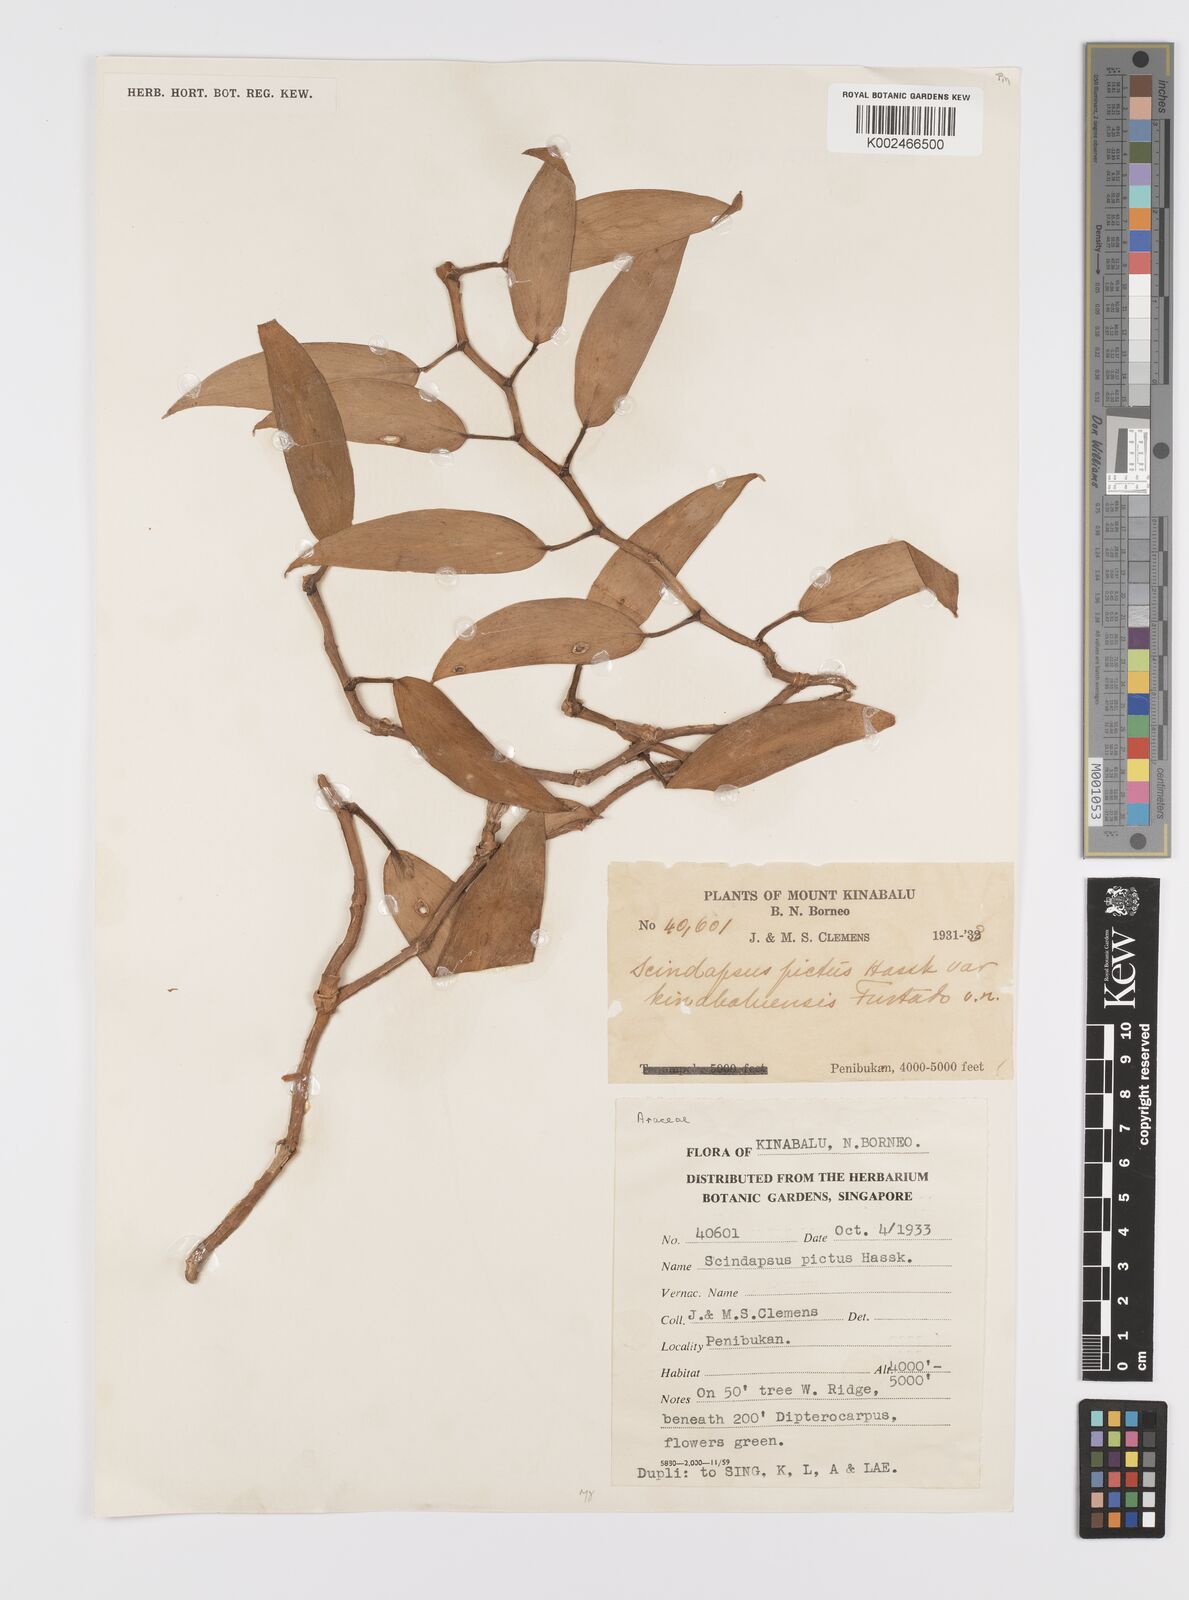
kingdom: Plantae
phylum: Tracheophyta
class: Liliopsida
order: Alismatales
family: Araceae
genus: Scindapsus
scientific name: Scindapsus pictus
